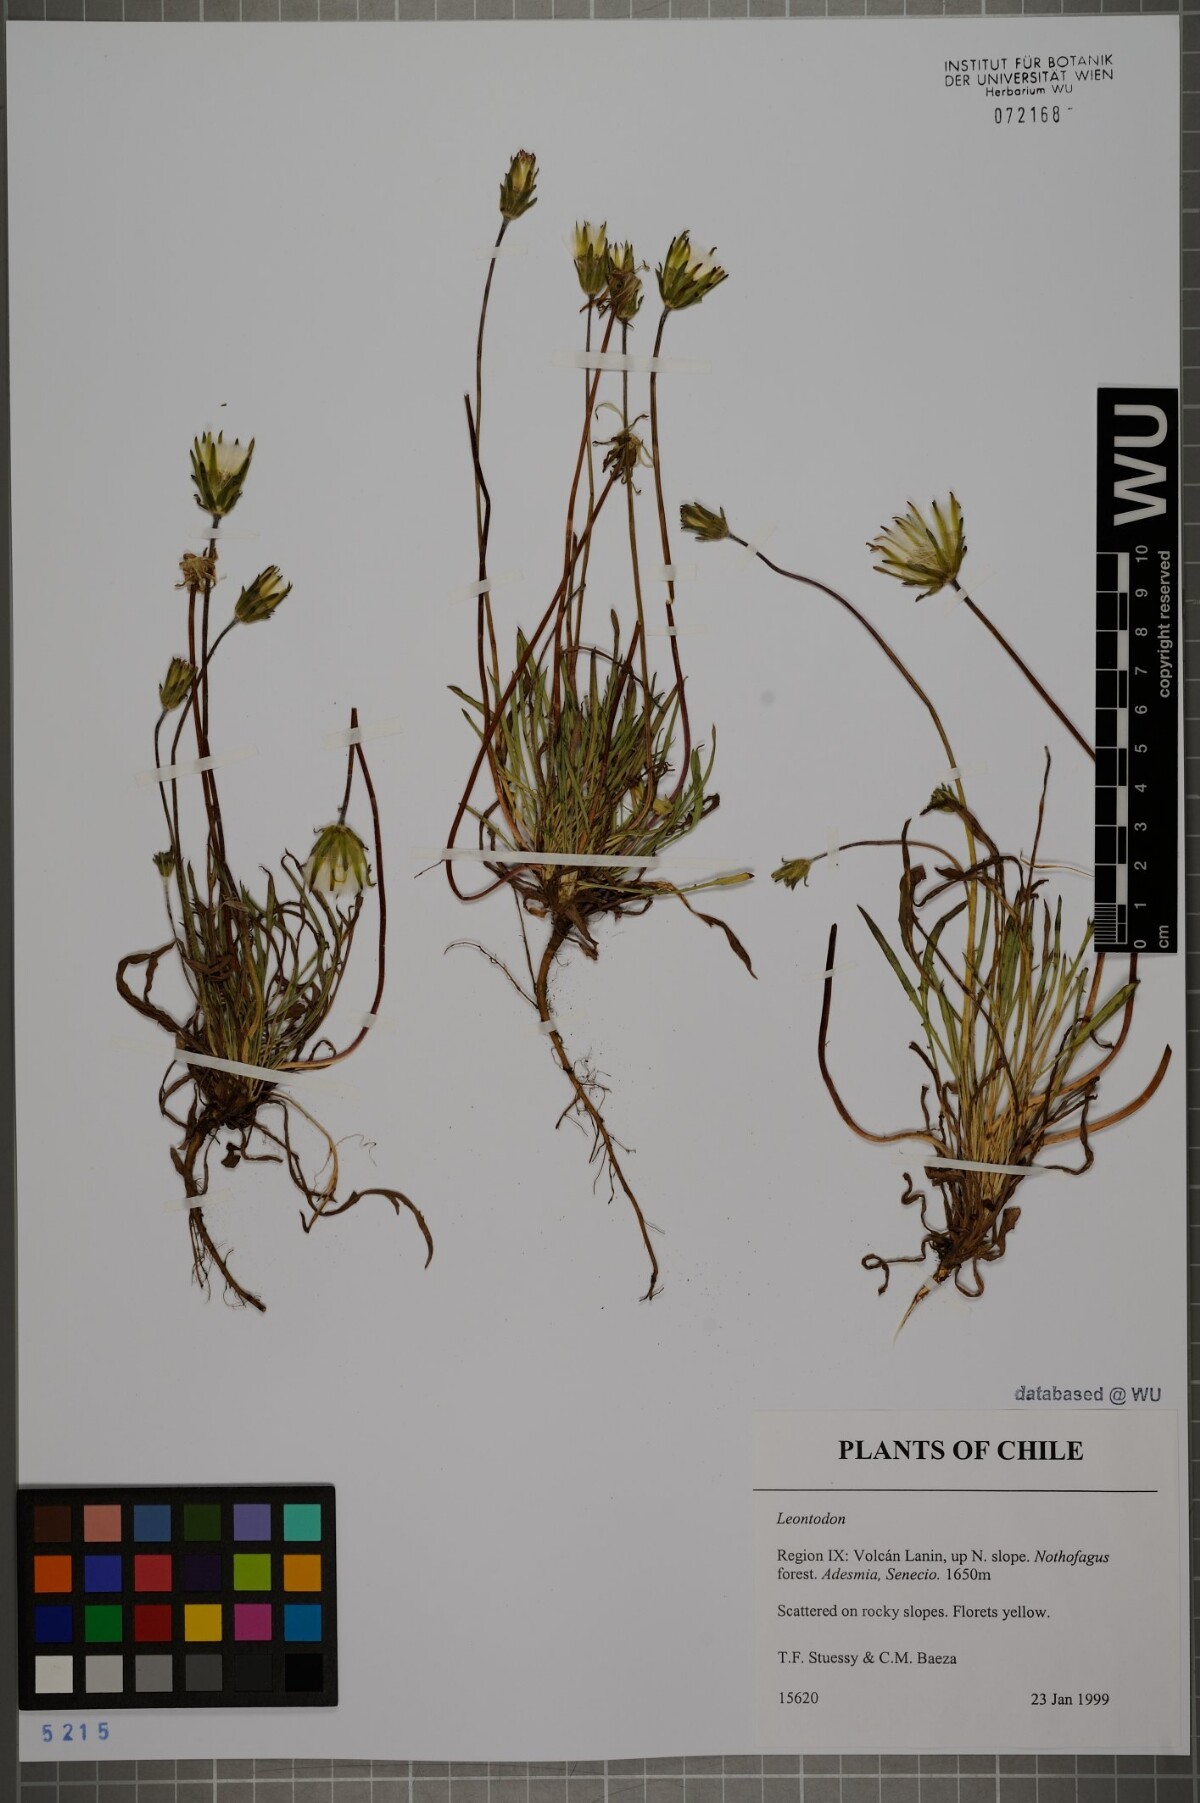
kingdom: Plantae
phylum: Tracheophyta
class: Magnoliopsida
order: Asterales
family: Asteraceae
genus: Leontodon
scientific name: Leontodon
